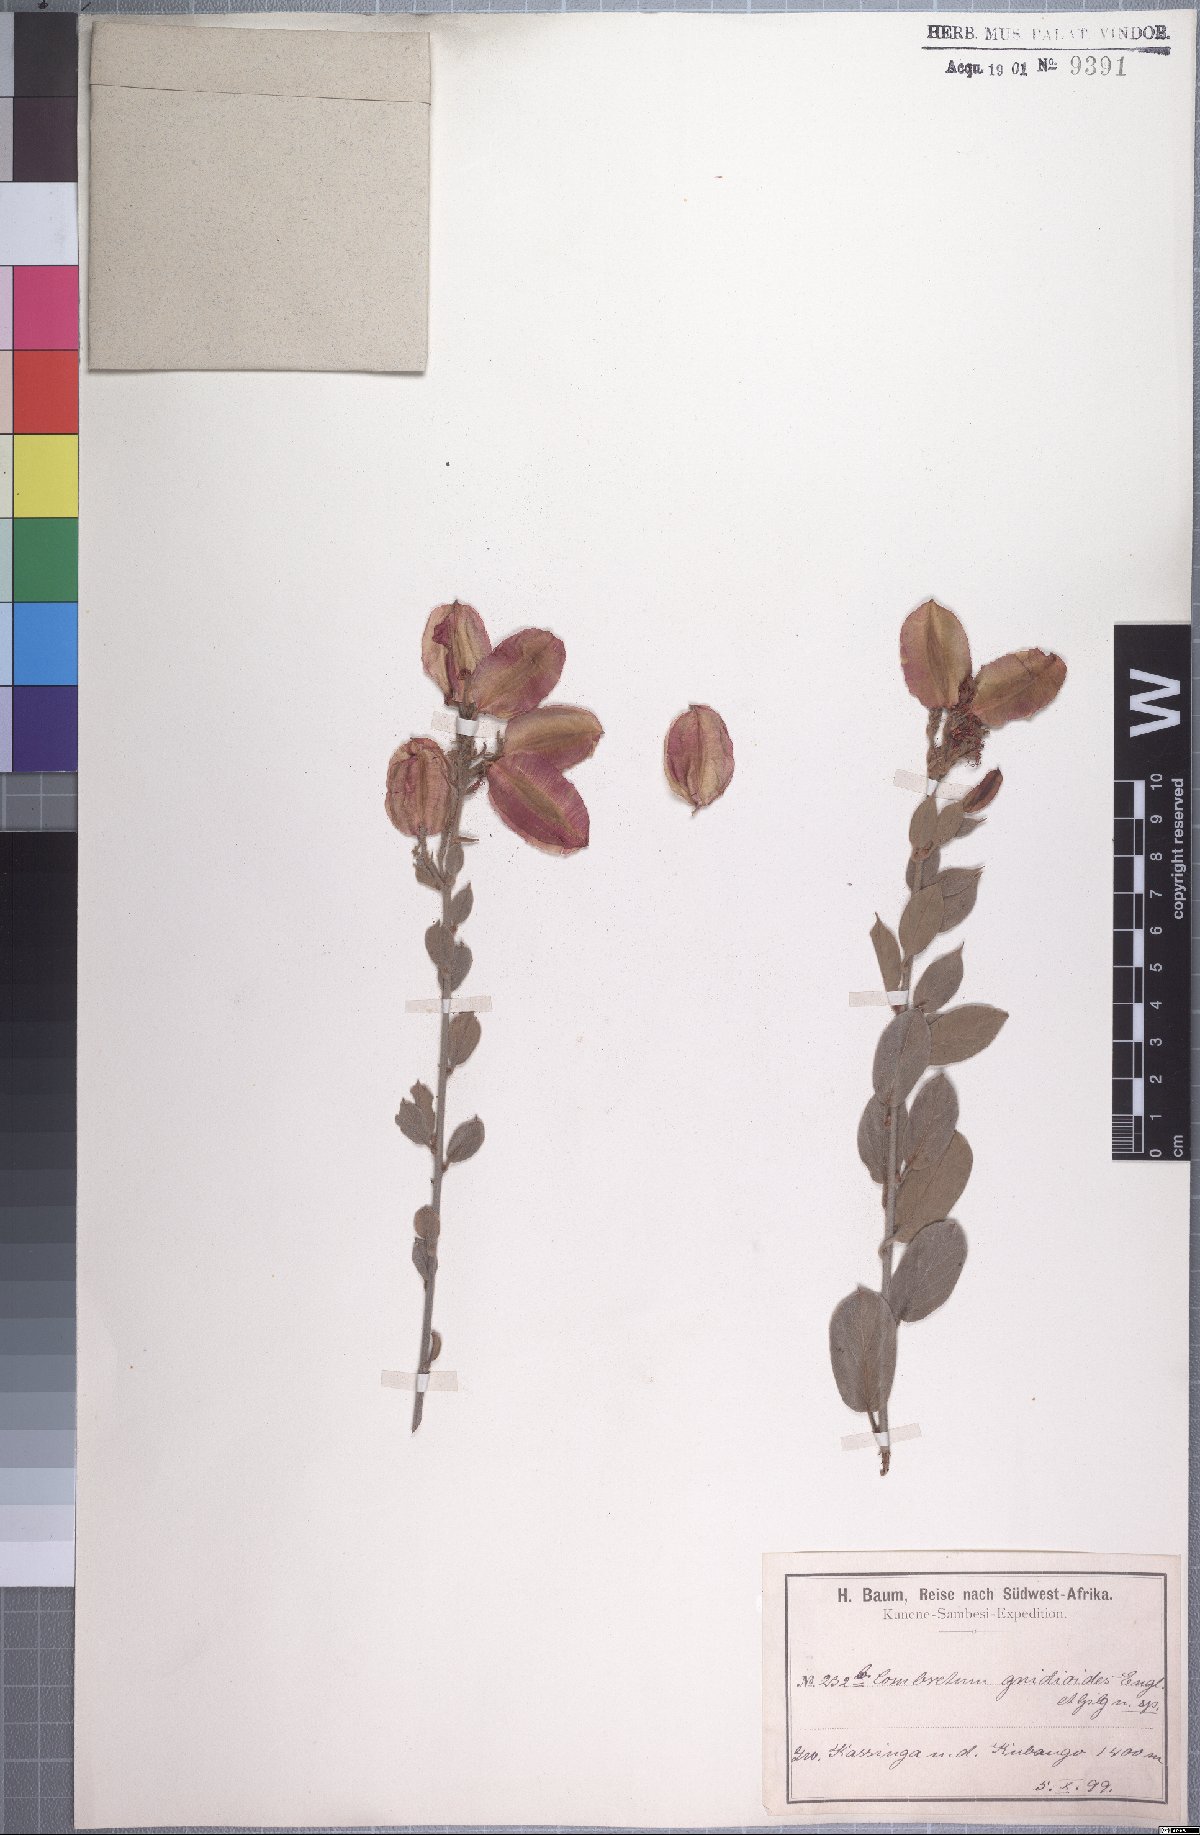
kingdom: Plantae
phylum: Tracheophyta
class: Magnoliopsida
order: Myrtales
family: Combretaceae
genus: Combretum
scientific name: Combretum baumii
